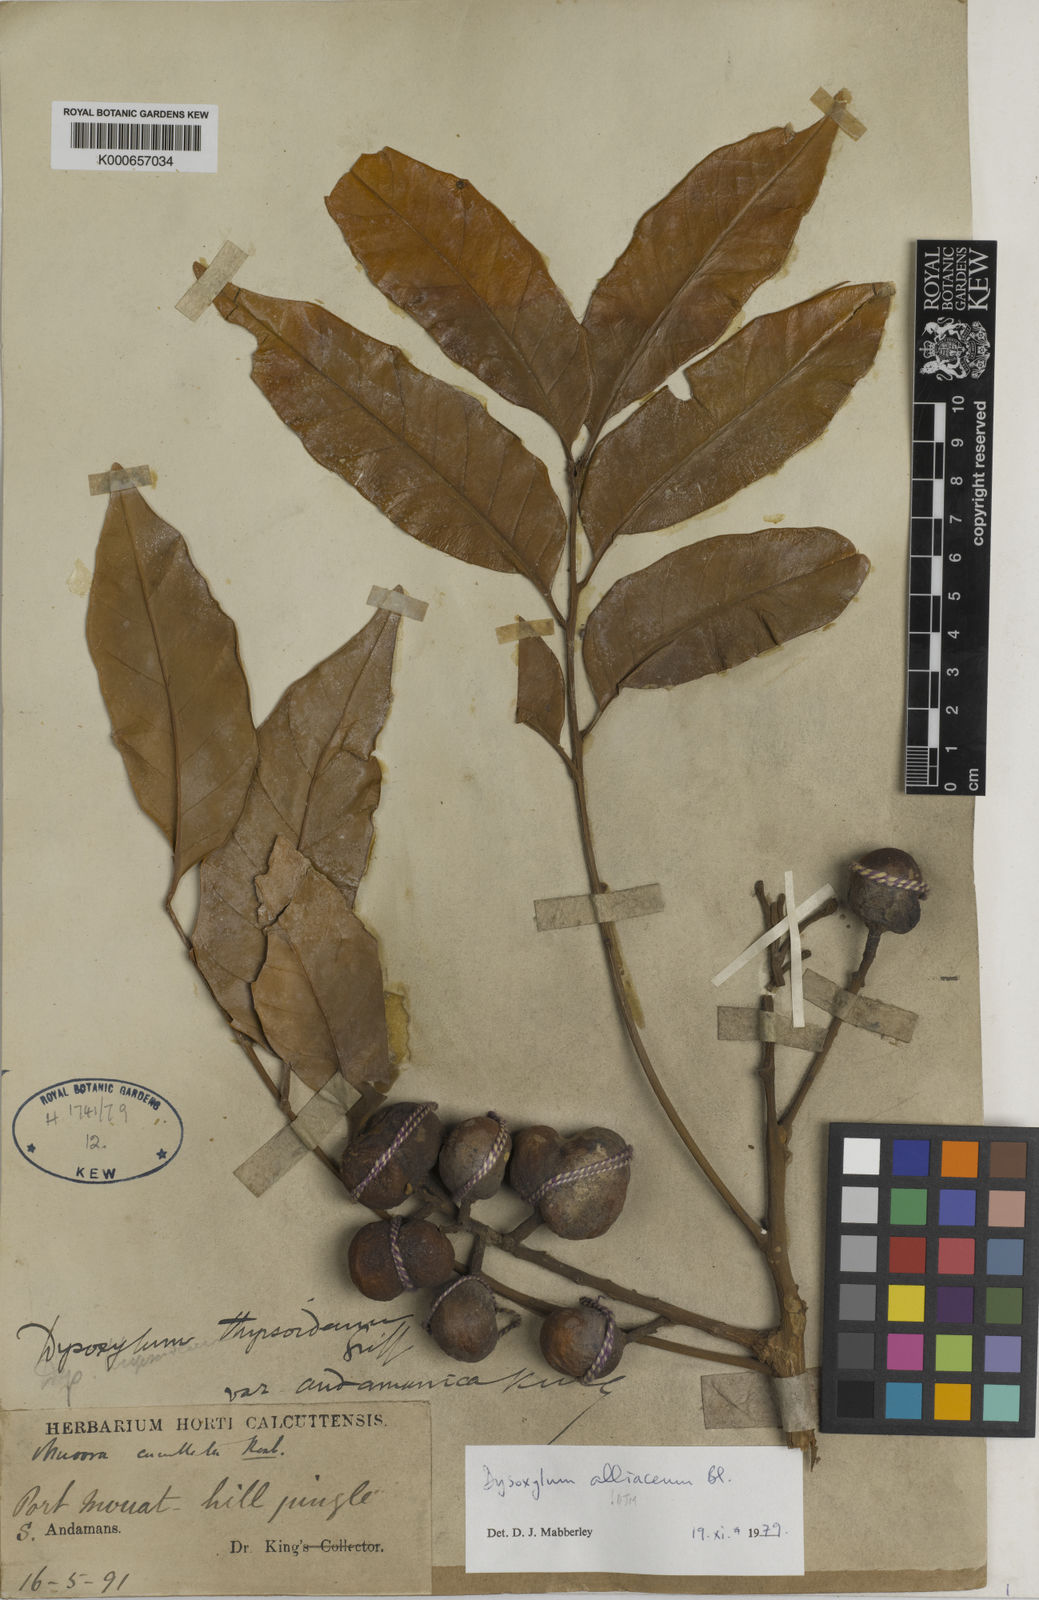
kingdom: Plantae
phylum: Tracheophyta
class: Magnoliopsida
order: Sapindales
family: Meliaceae
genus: Prasoxylon
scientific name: Prasoxylon alliaceum
